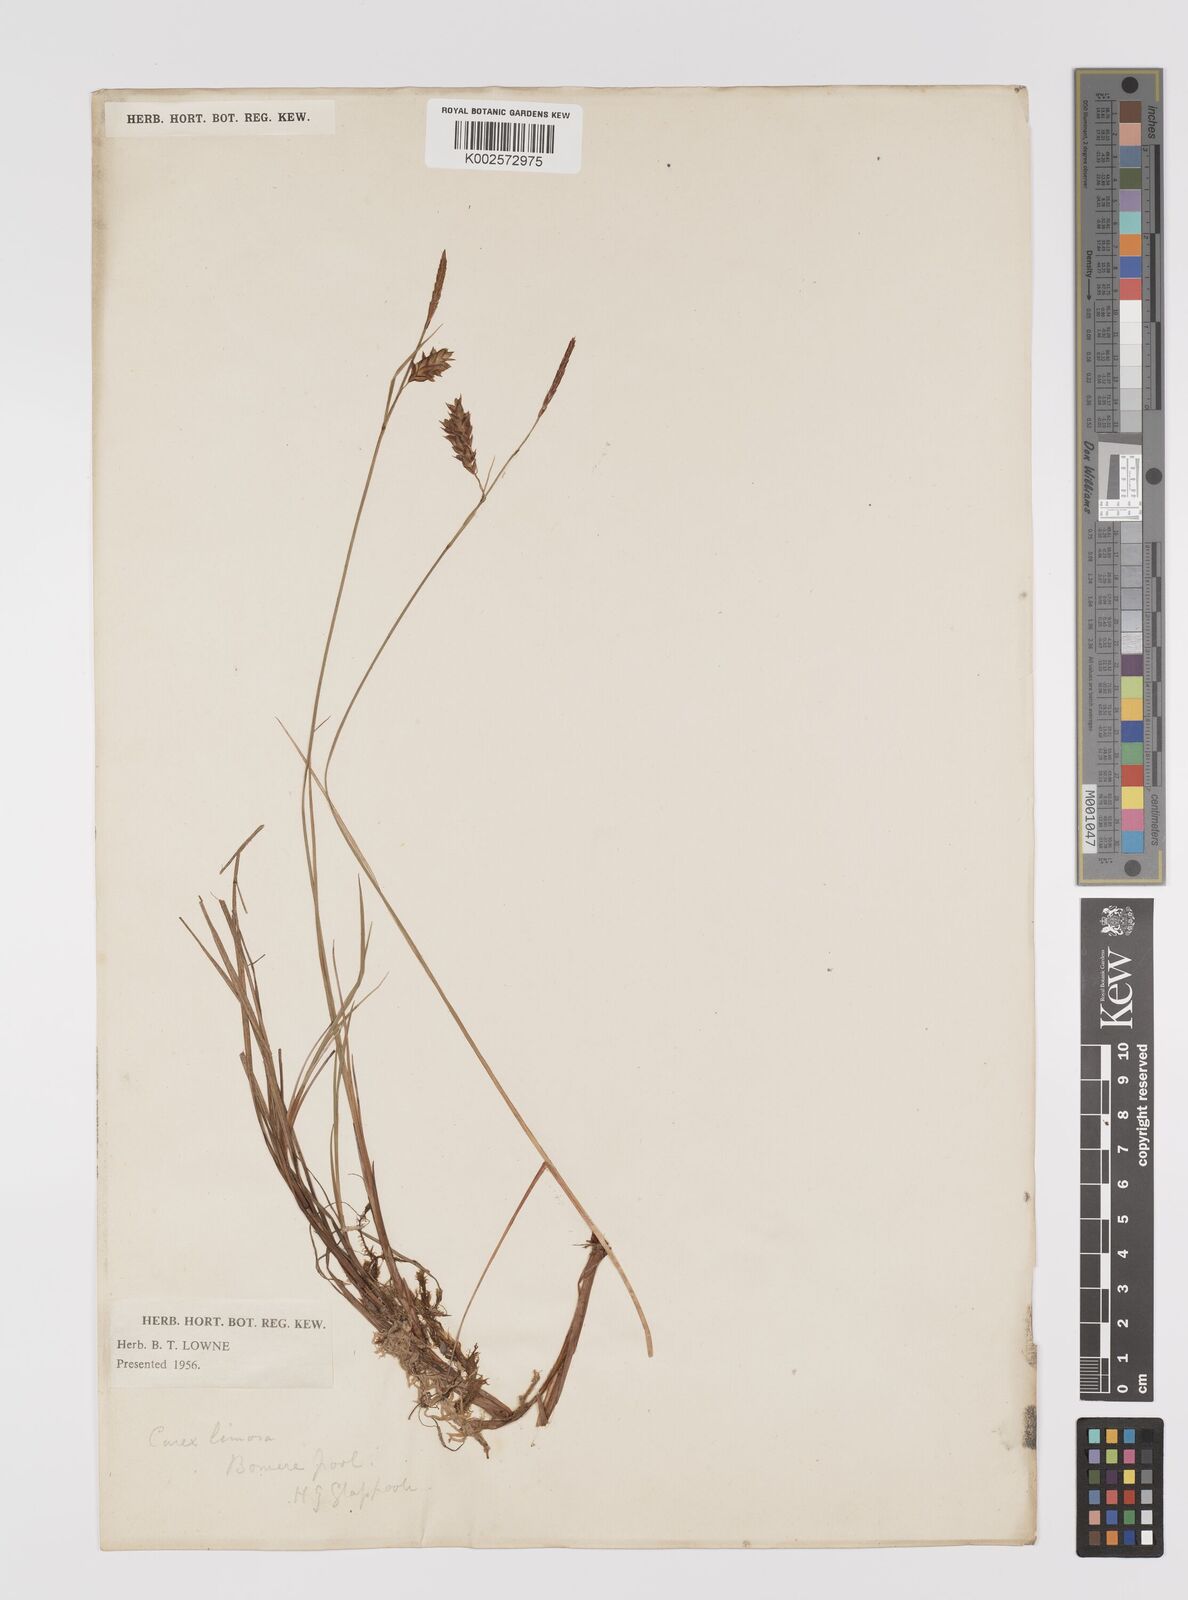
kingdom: Plantae
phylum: Tracheophyta
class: Liliopsida
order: Poales
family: Cyperaceae
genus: Carex
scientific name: Carex limosa
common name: Bog sedge
